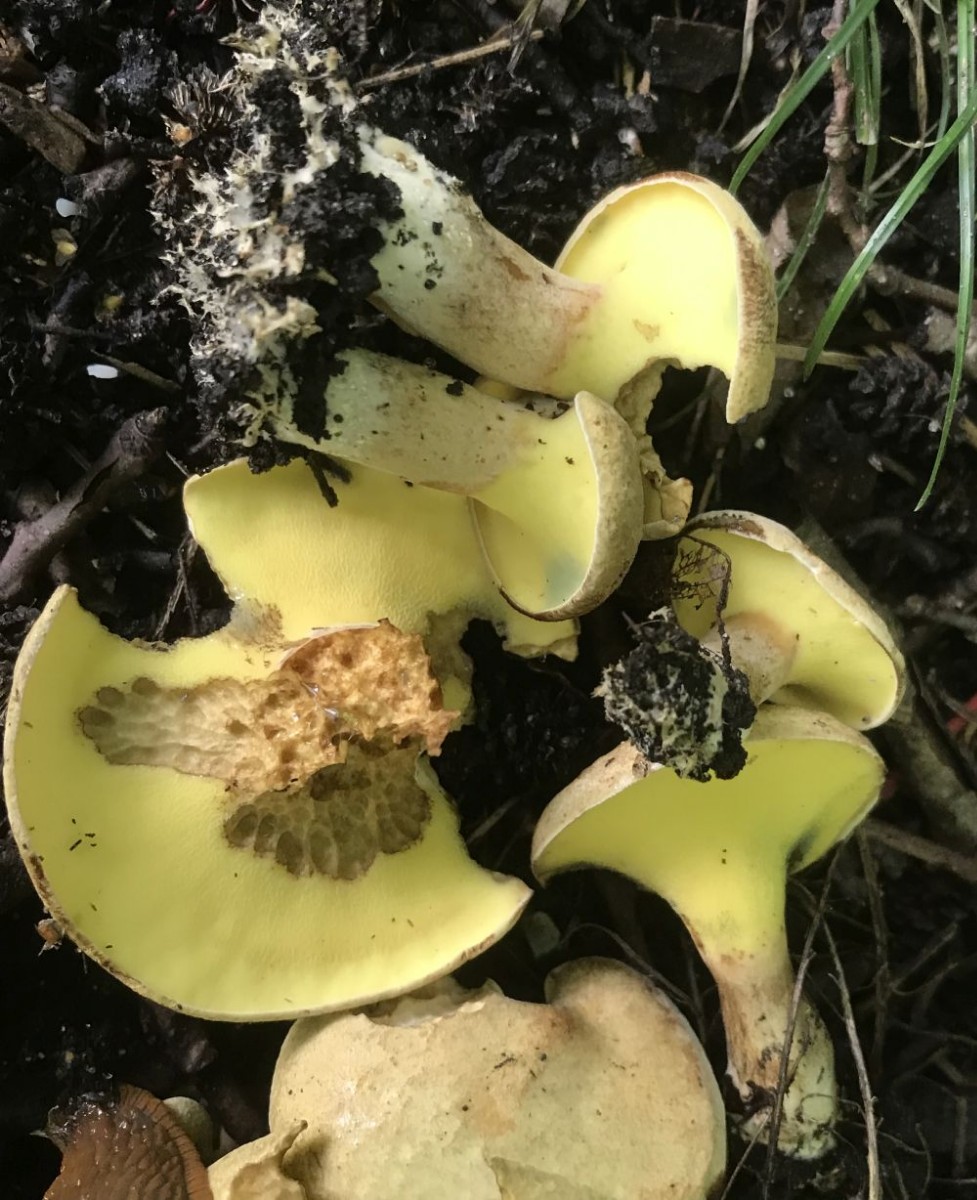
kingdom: Fungi
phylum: Basidiomycota
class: Agaricomycetes
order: Boletales
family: Paxillaceae
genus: Gyrodon
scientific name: Gyrodon lividus
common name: ellerørhat
